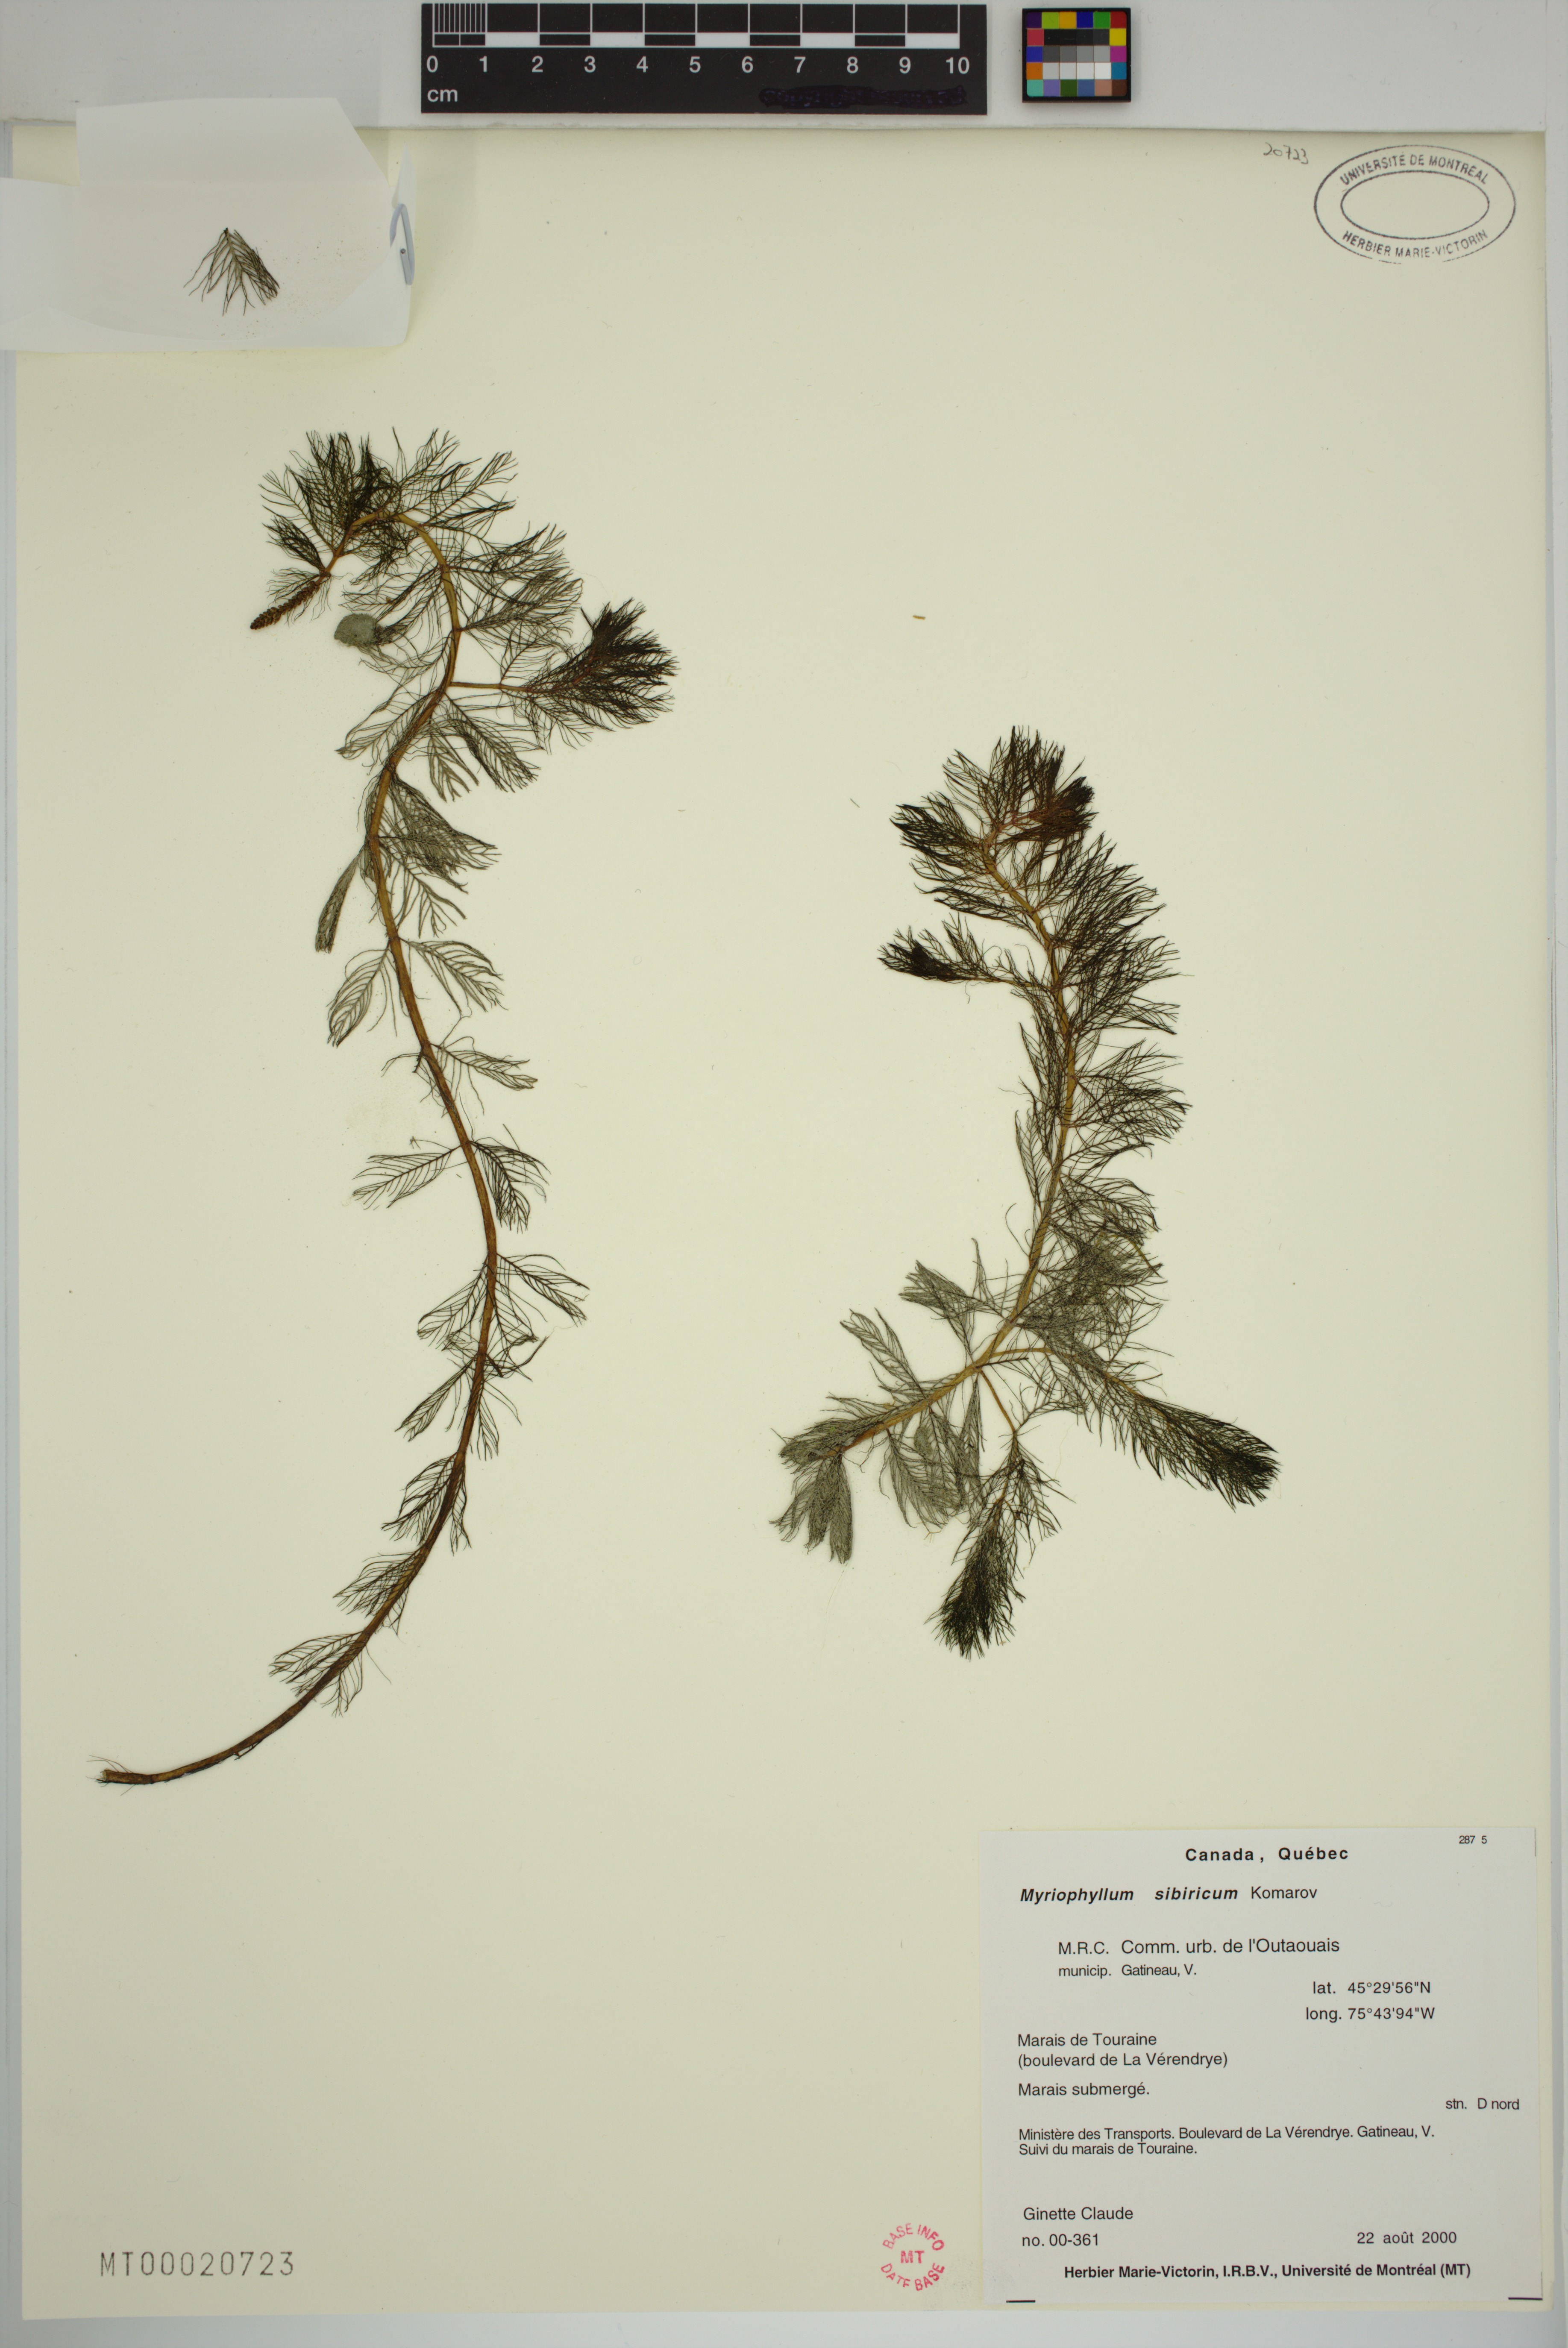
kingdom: Plantae
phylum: Tracheophyta
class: Magnoliopsida
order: Saxifragales
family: Haloragaceae
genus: Myriophyllum
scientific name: Myriophyllum sibiricum
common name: Siberian water-milfoil
